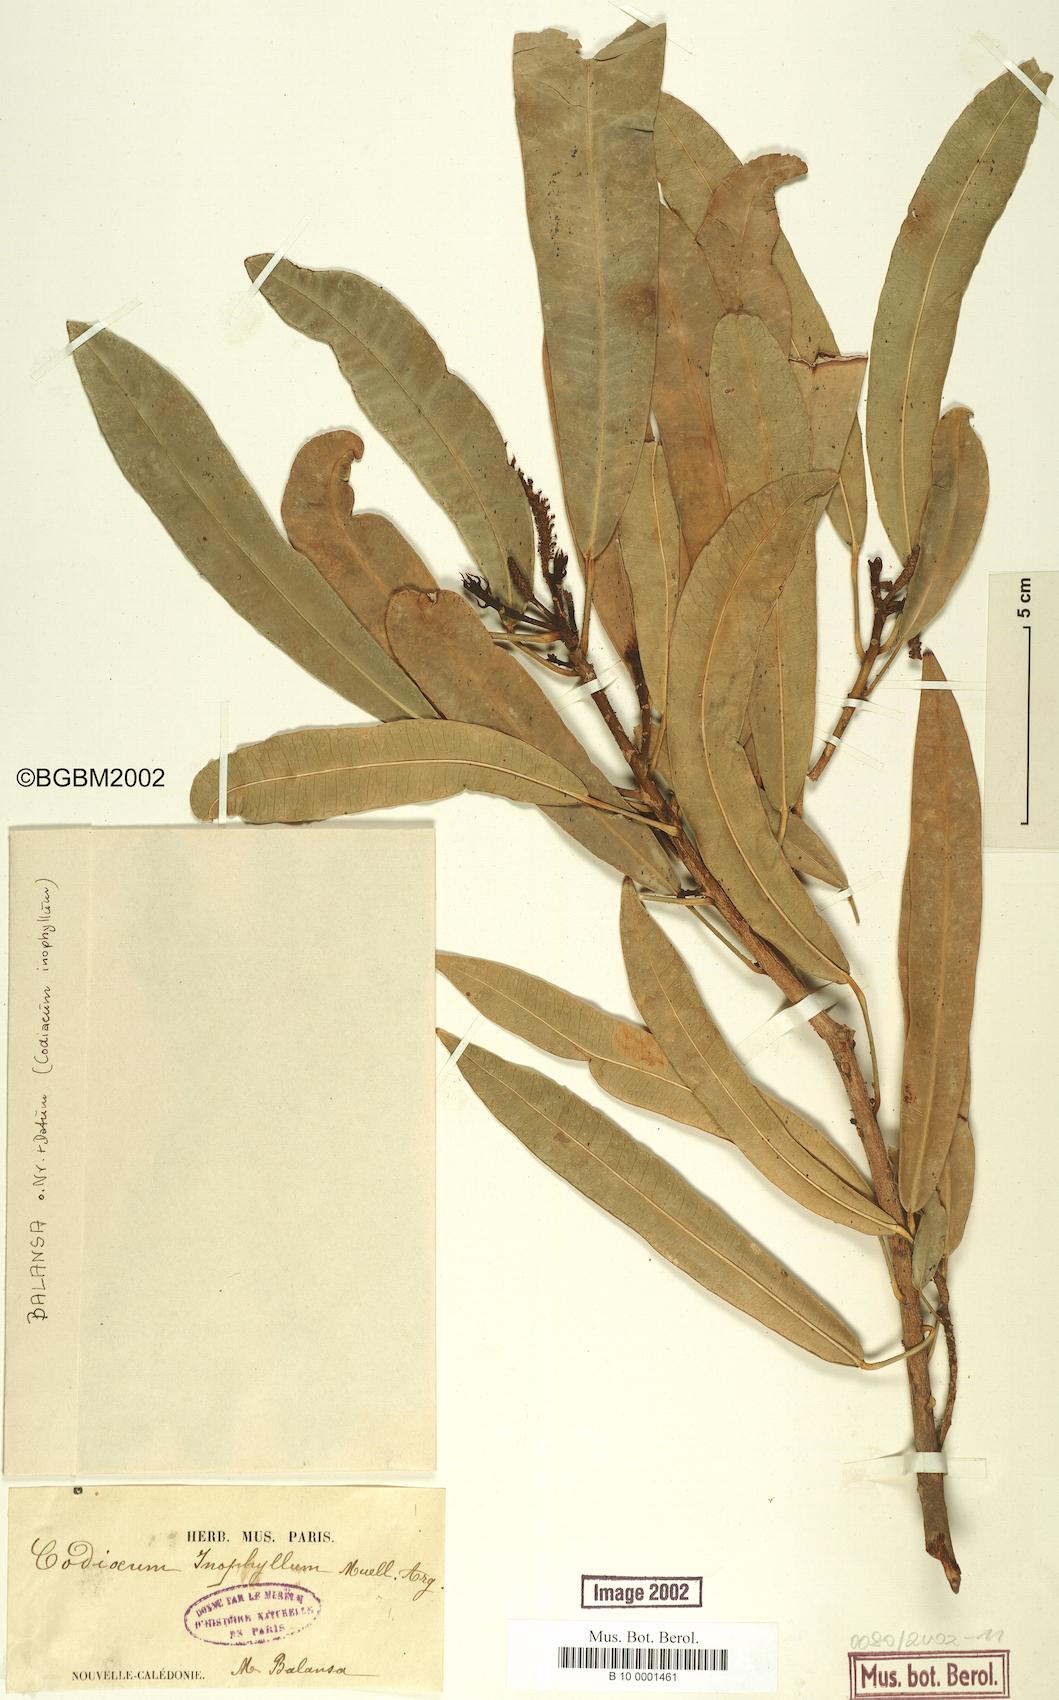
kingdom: Plantae
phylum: Tracheophyta
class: Magnoliopsida
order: Malpighiales
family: Euphorbiaceae
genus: Baloghia
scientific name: Baloghia inophylla
